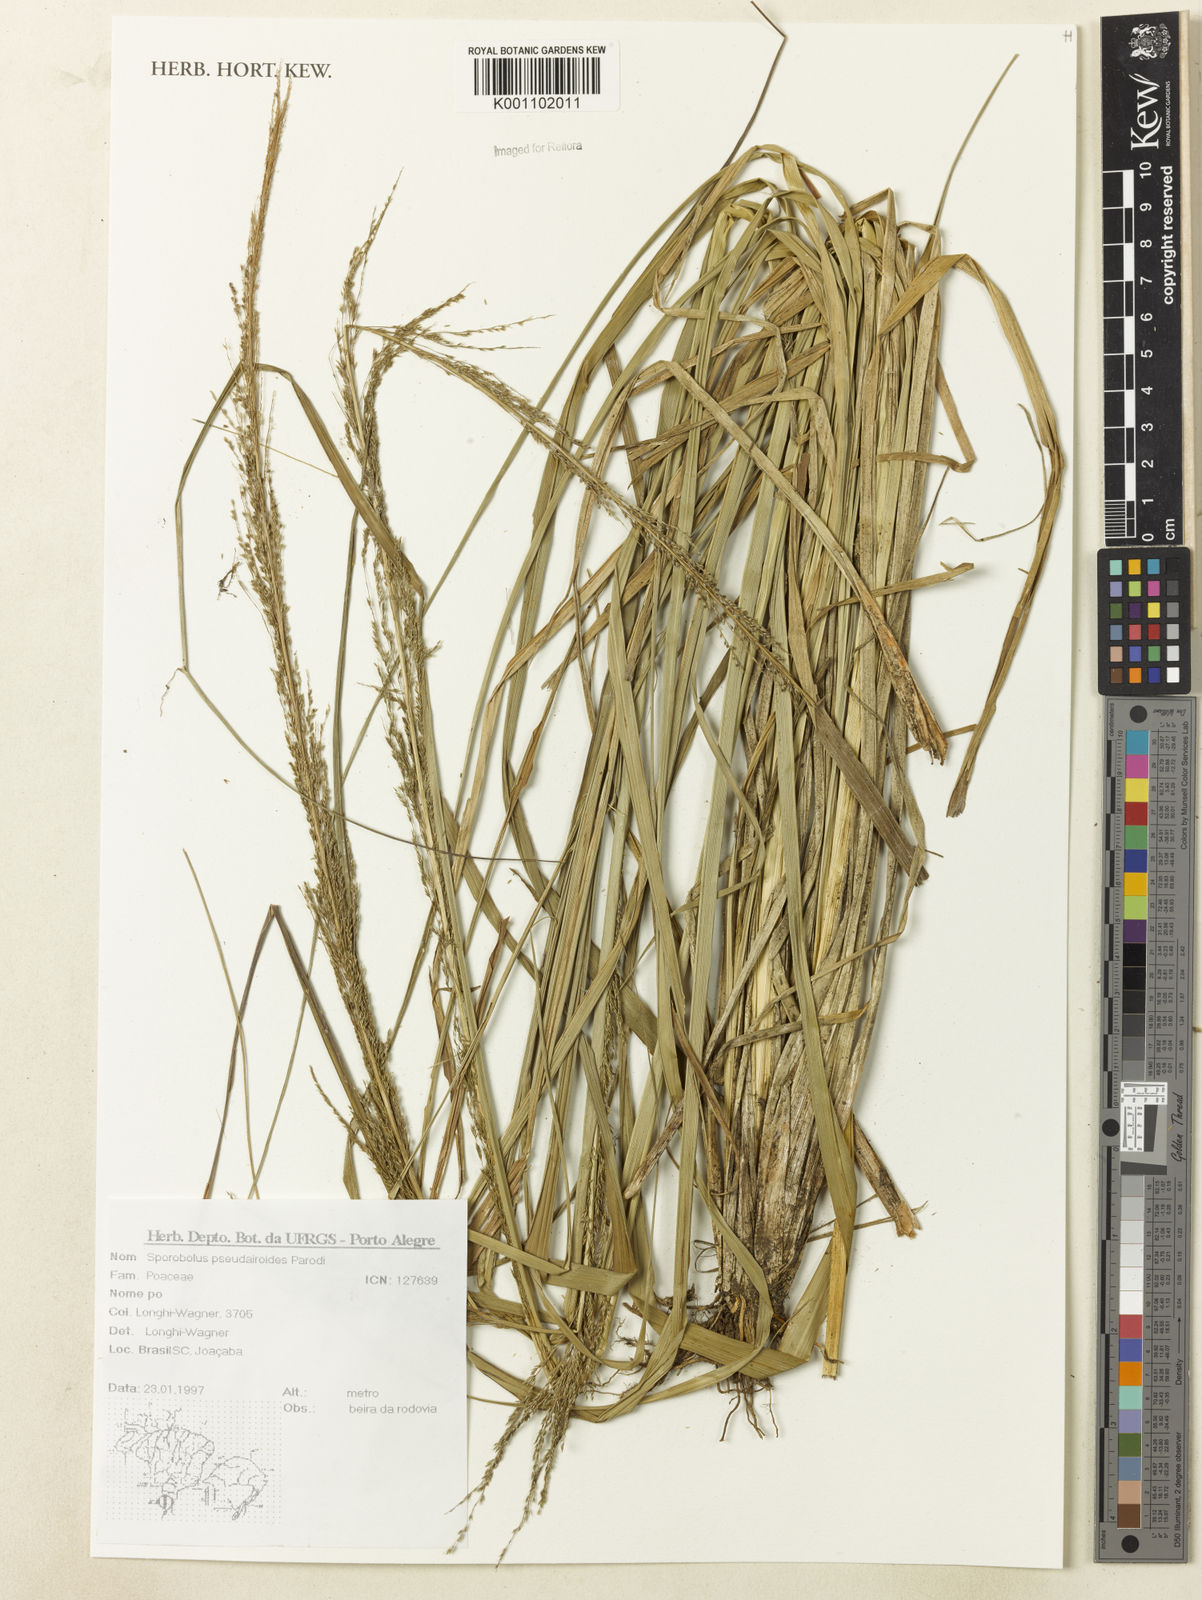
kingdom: Plantae
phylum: Tracheophyta
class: Liliopsida
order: Poales
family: Poaceae
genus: Sporobolus
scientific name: Sporobolus pseudairoides
